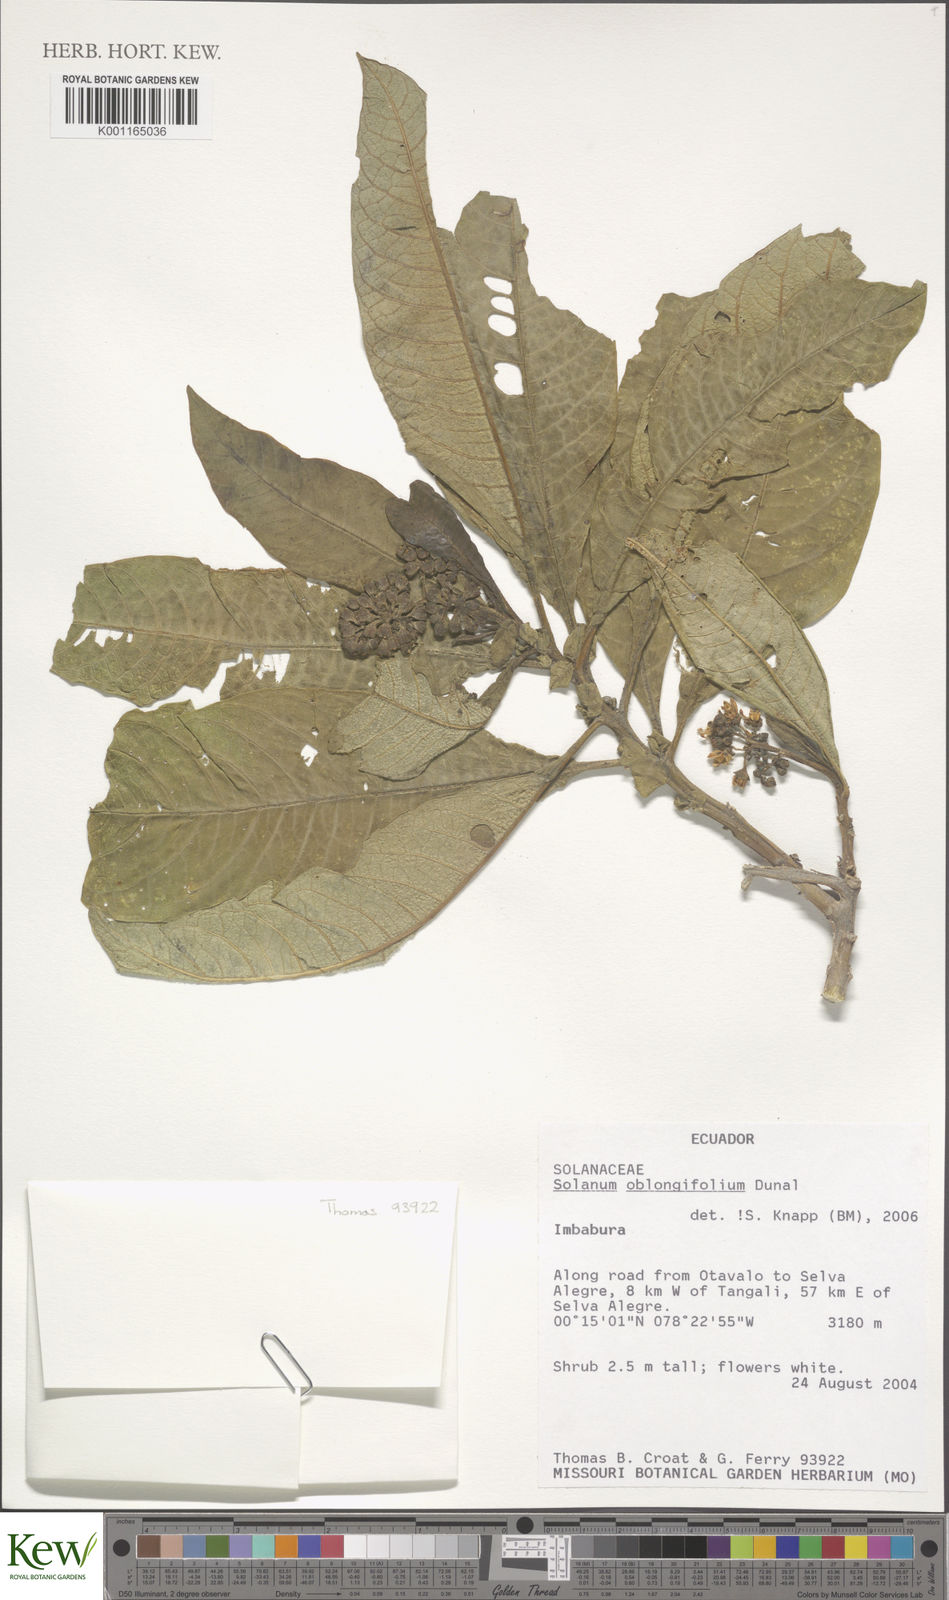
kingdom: Plantae
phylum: Tracheophyta
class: Magnoliopsida
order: Solanales
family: Solanaceae
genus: Solanum
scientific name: Solanum oblongifolium
